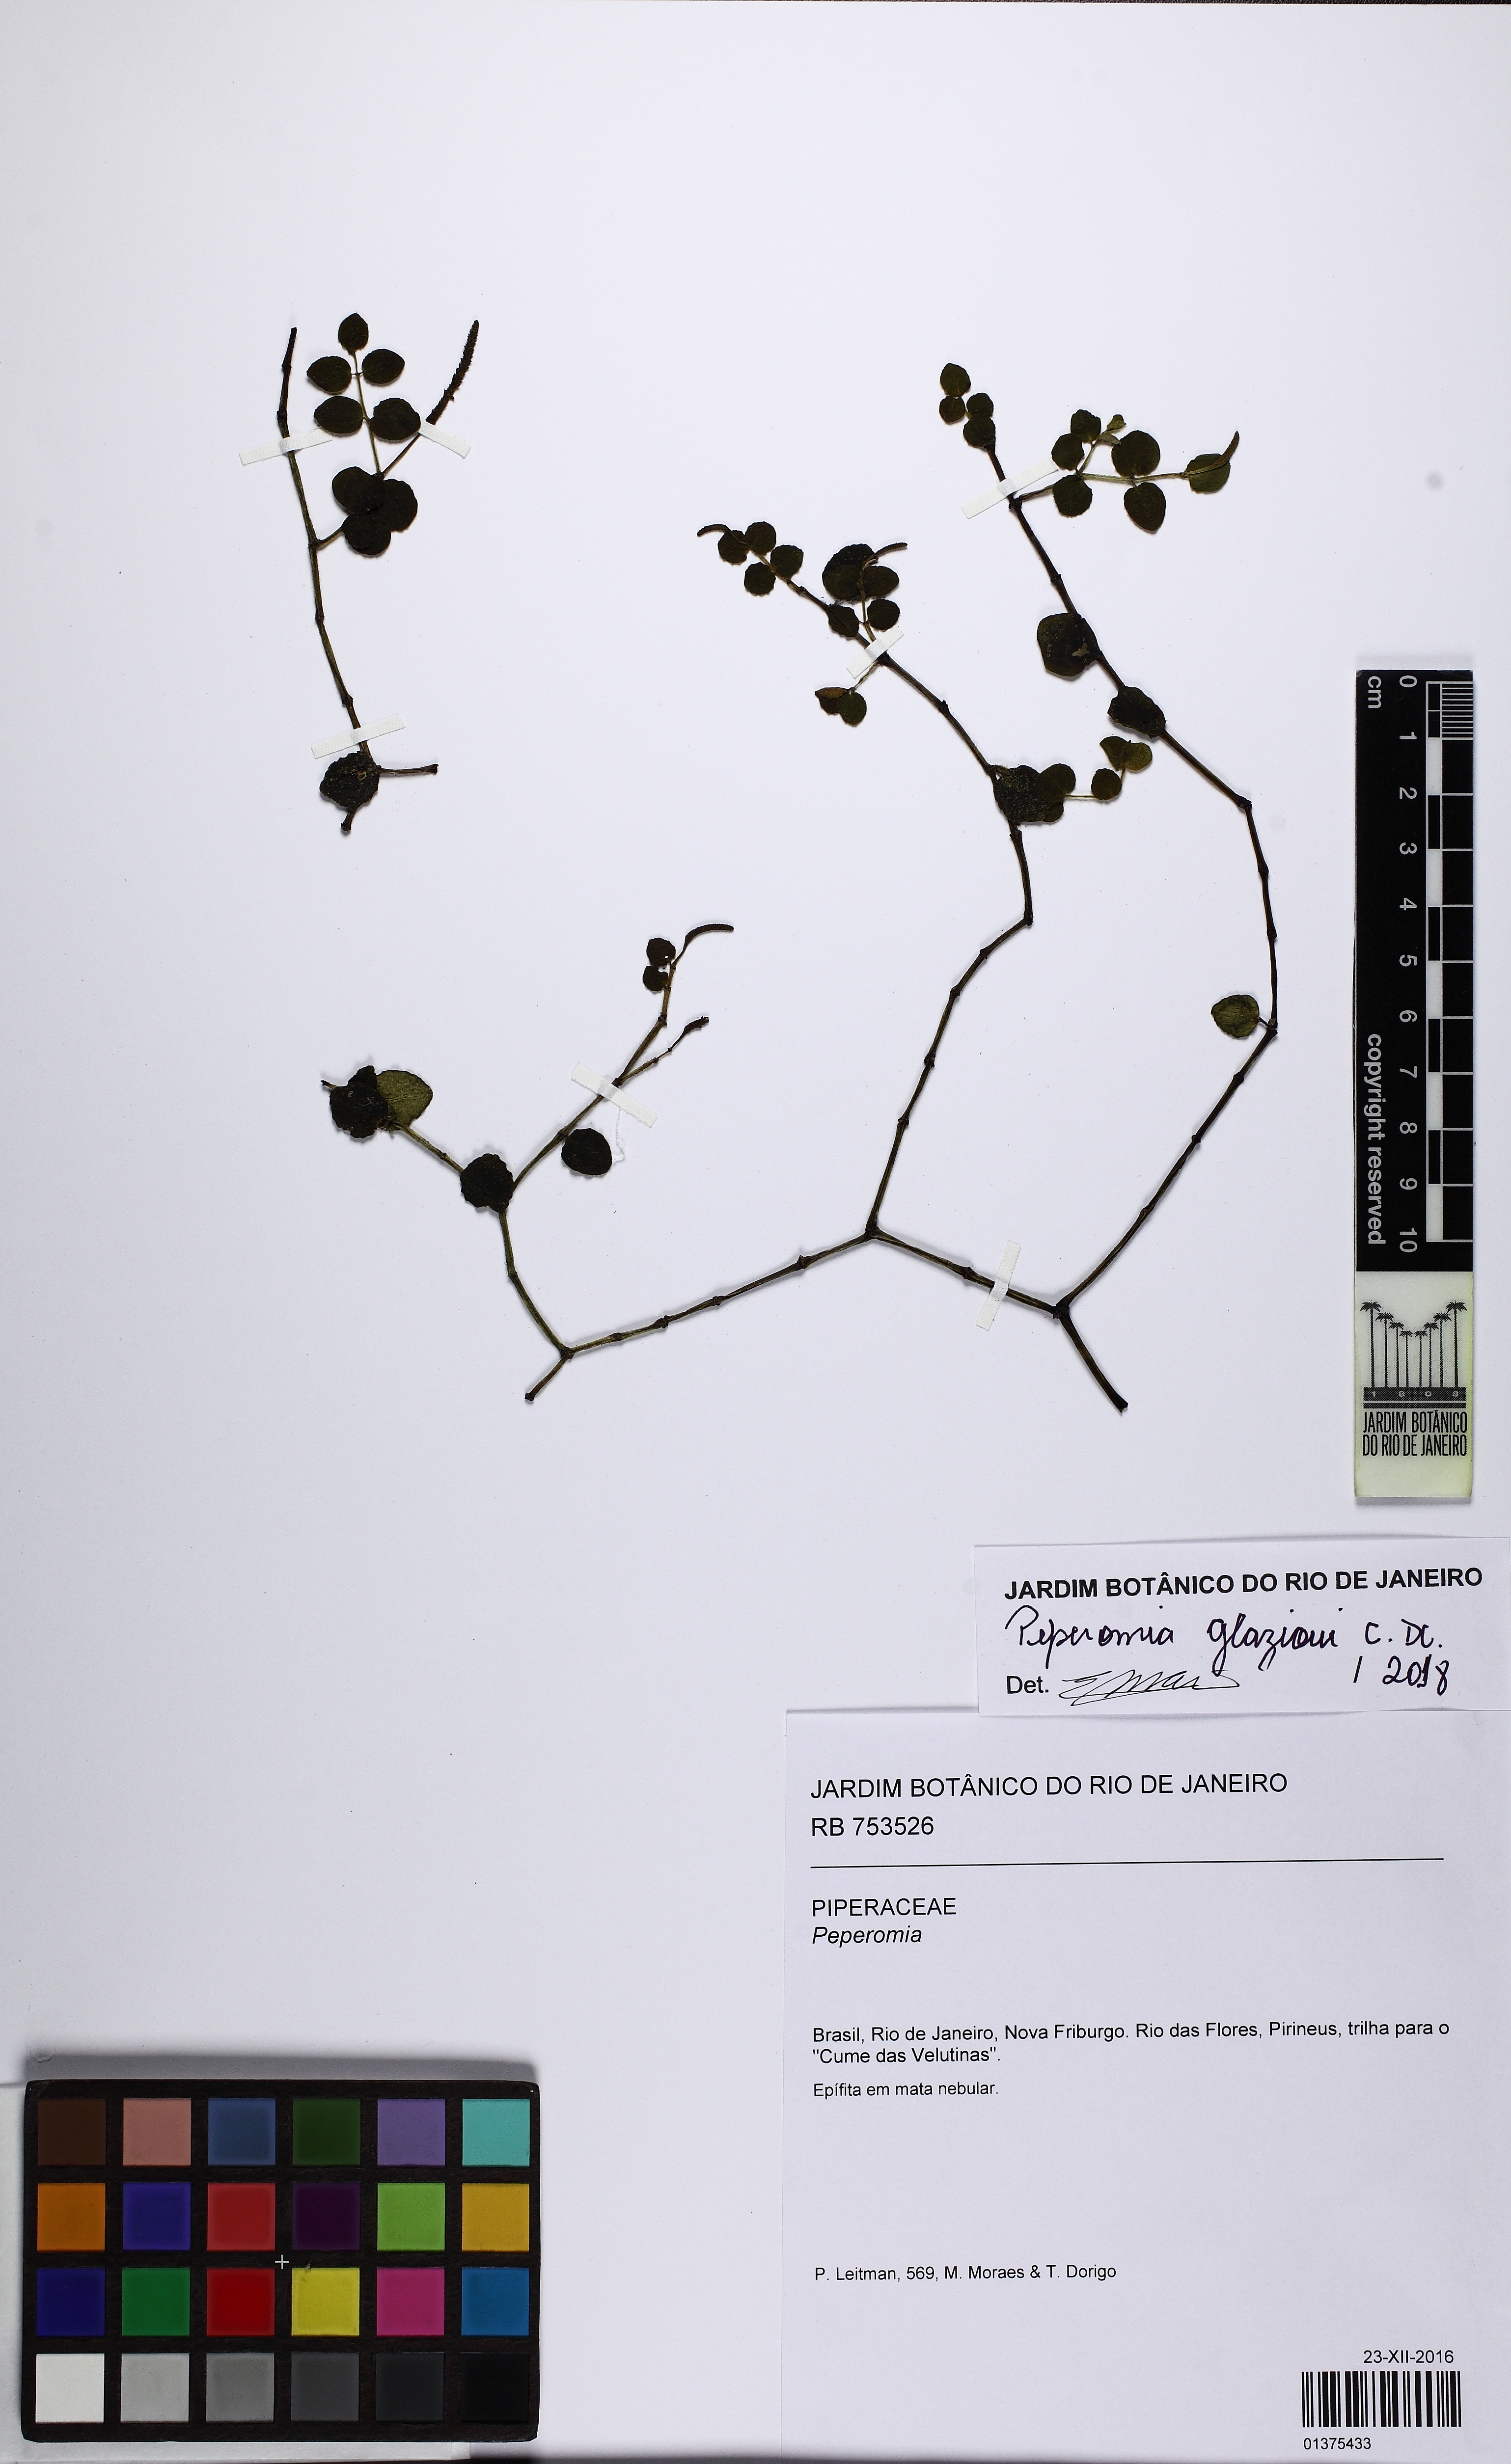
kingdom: Plantae
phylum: Tracheophyta
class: Magnoliopsida
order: Piperales
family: Piperaceae
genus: Peperomia
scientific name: Peperomia glazioui
